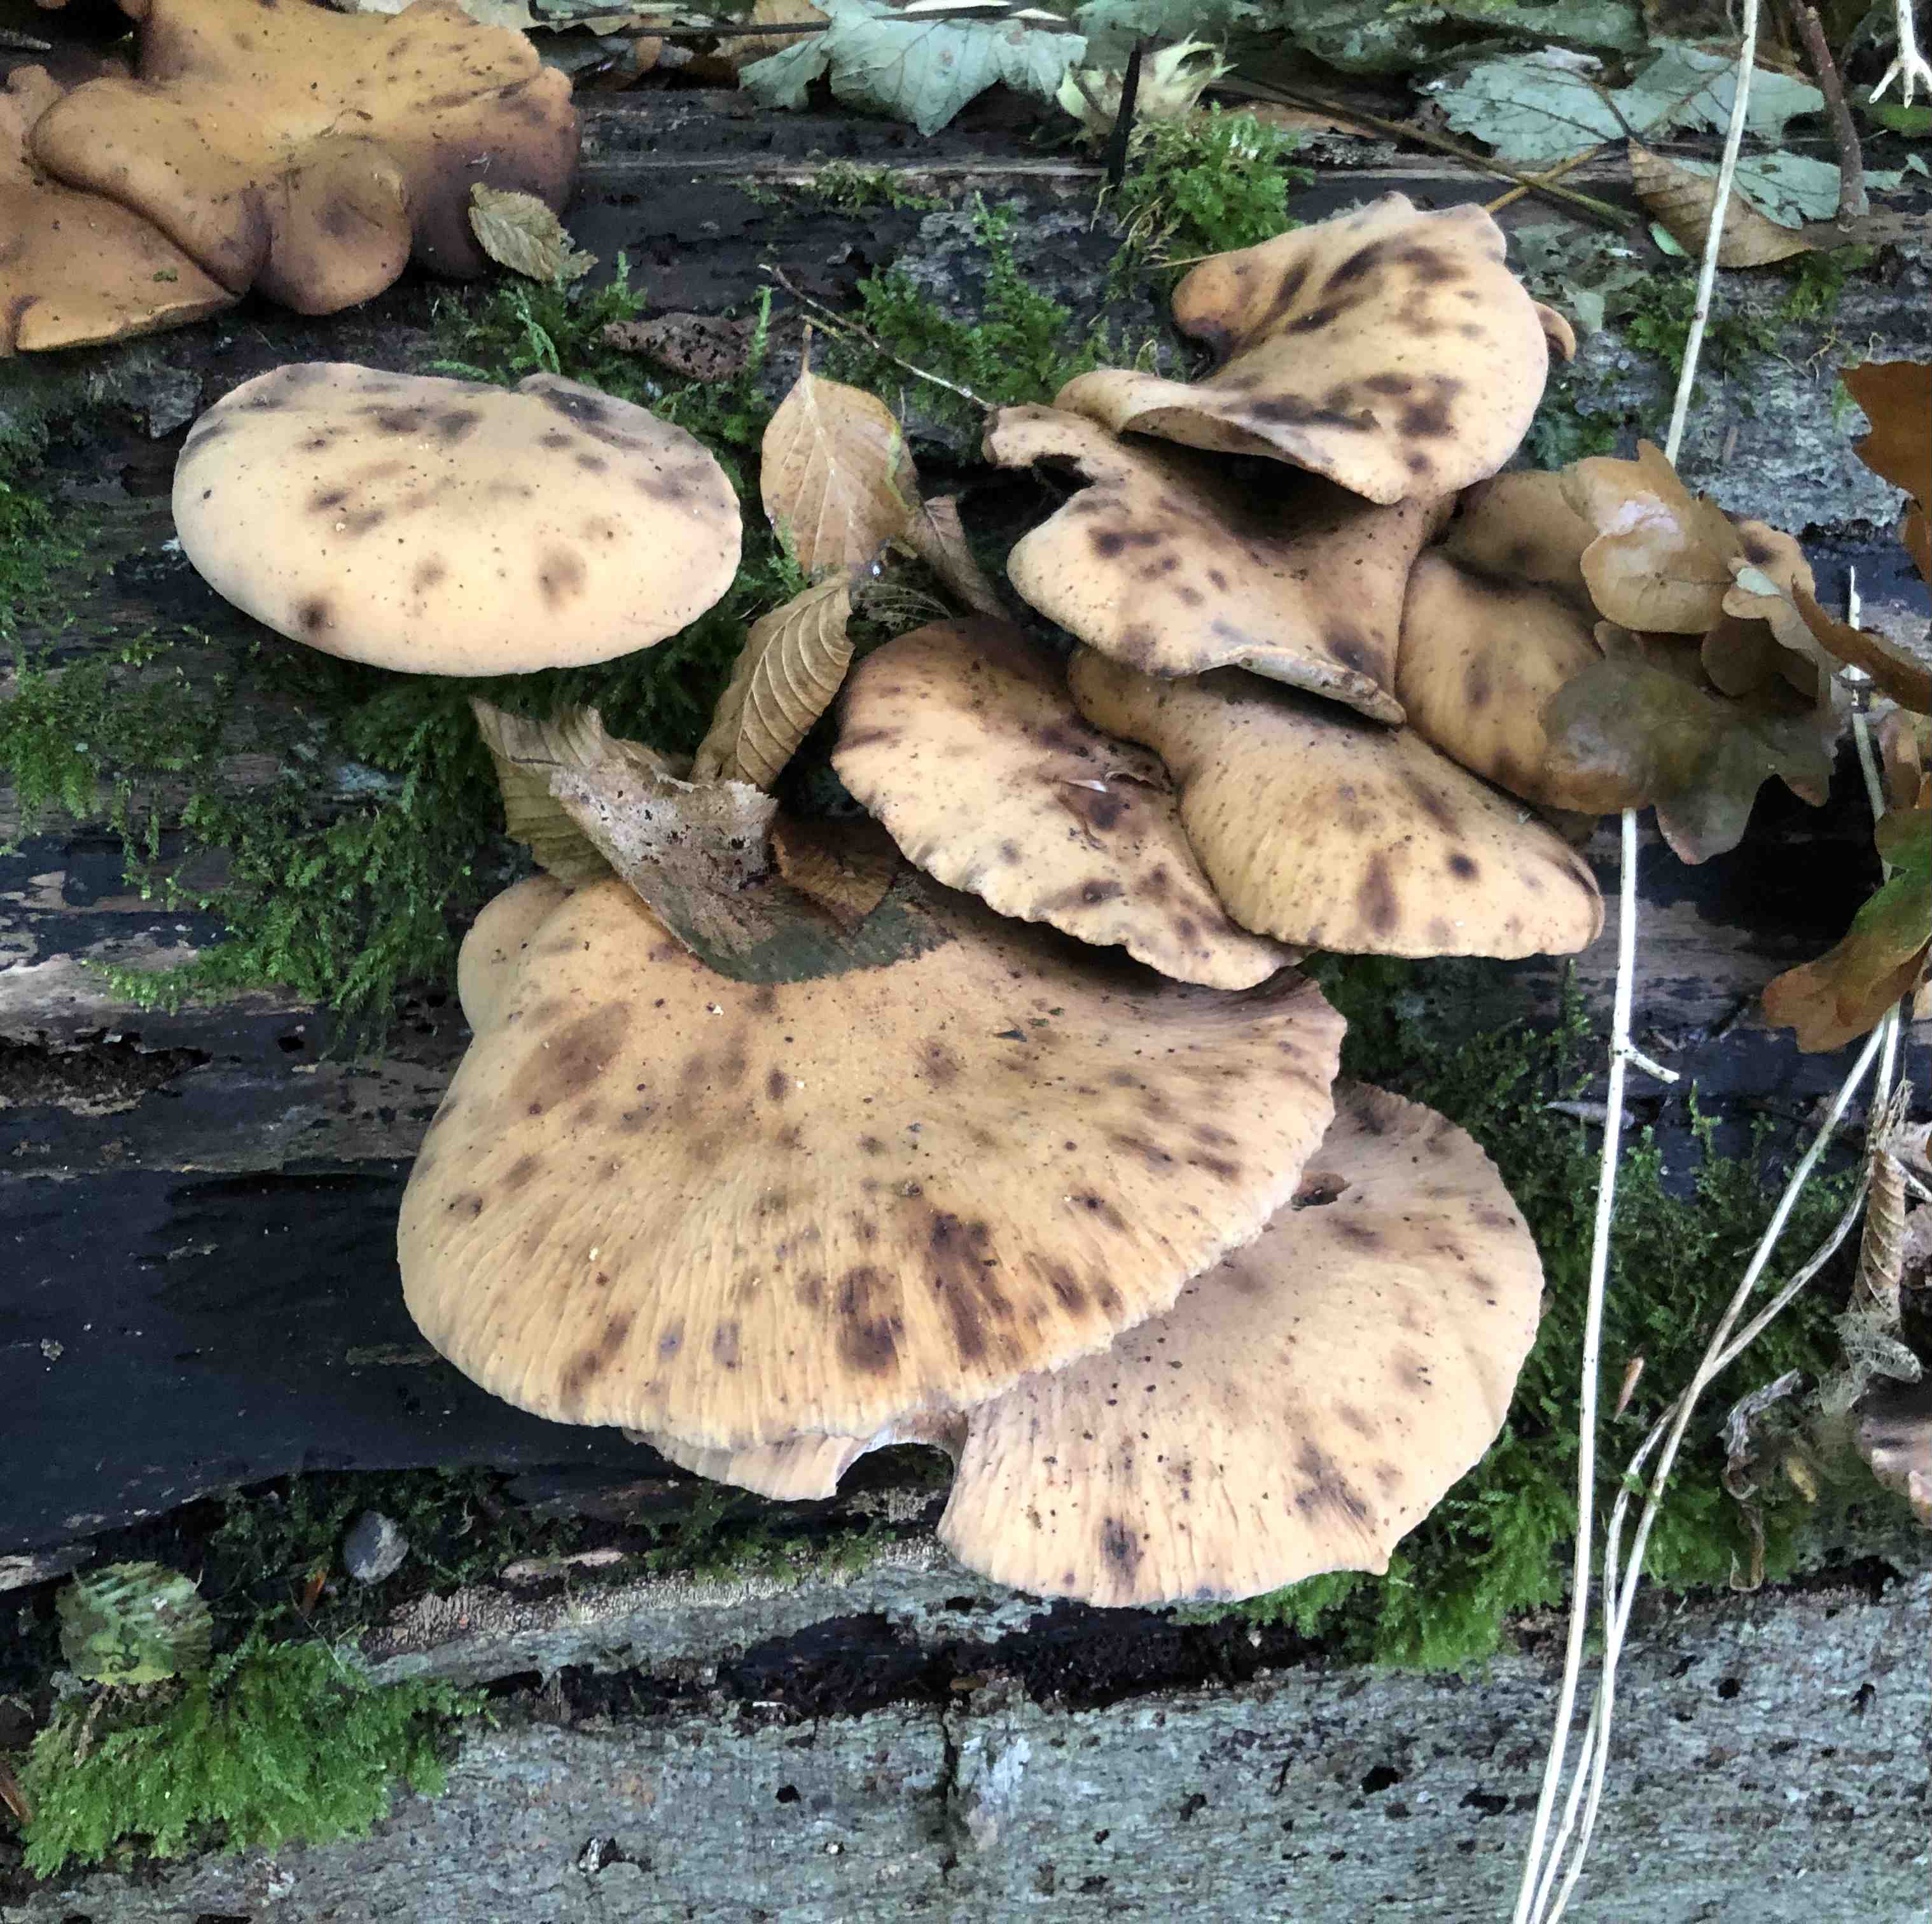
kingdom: Fungi
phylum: Basidiomycota
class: Agaricomycetes
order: Polyporales
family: Polyporaceae
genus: Cerioporus
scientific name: Cerioporus varius
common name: foranderlig stilkporesvamp
